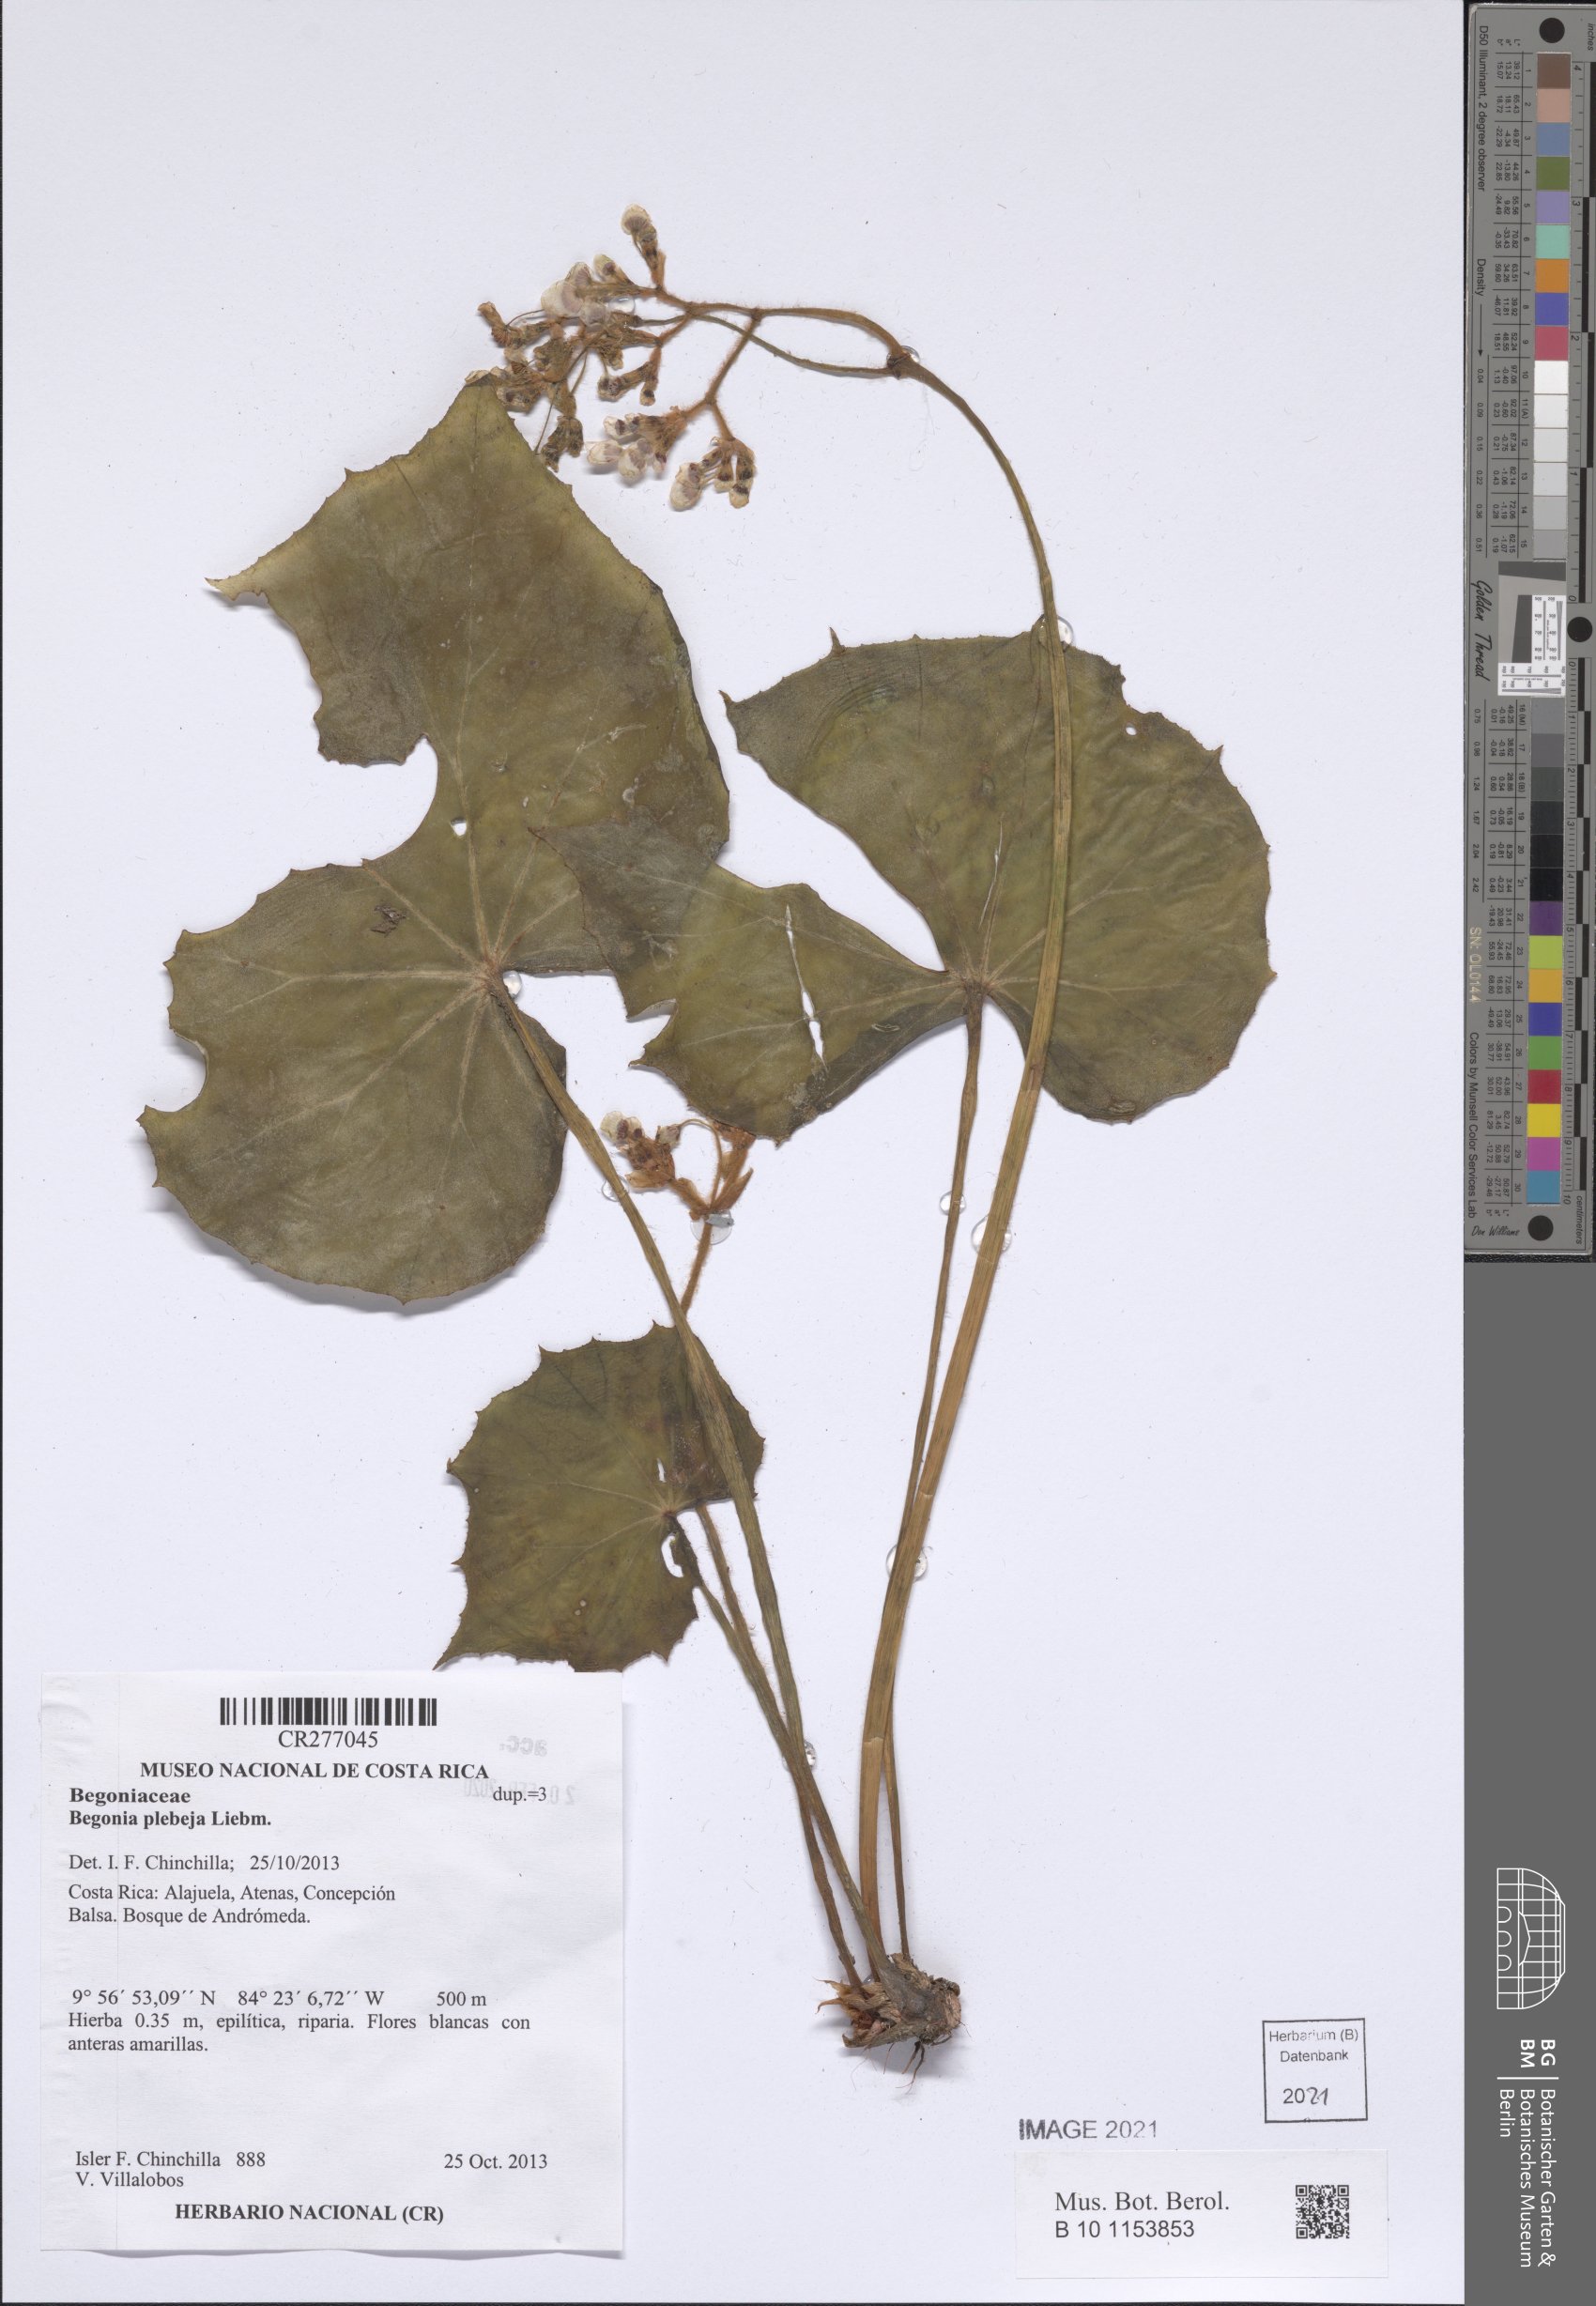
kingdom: Plantae
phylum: Tracheophyta
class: Magnoliopsida
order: Cucurbitales
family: Begoniaceae
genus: Begonia
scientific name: Begonia plebeja
